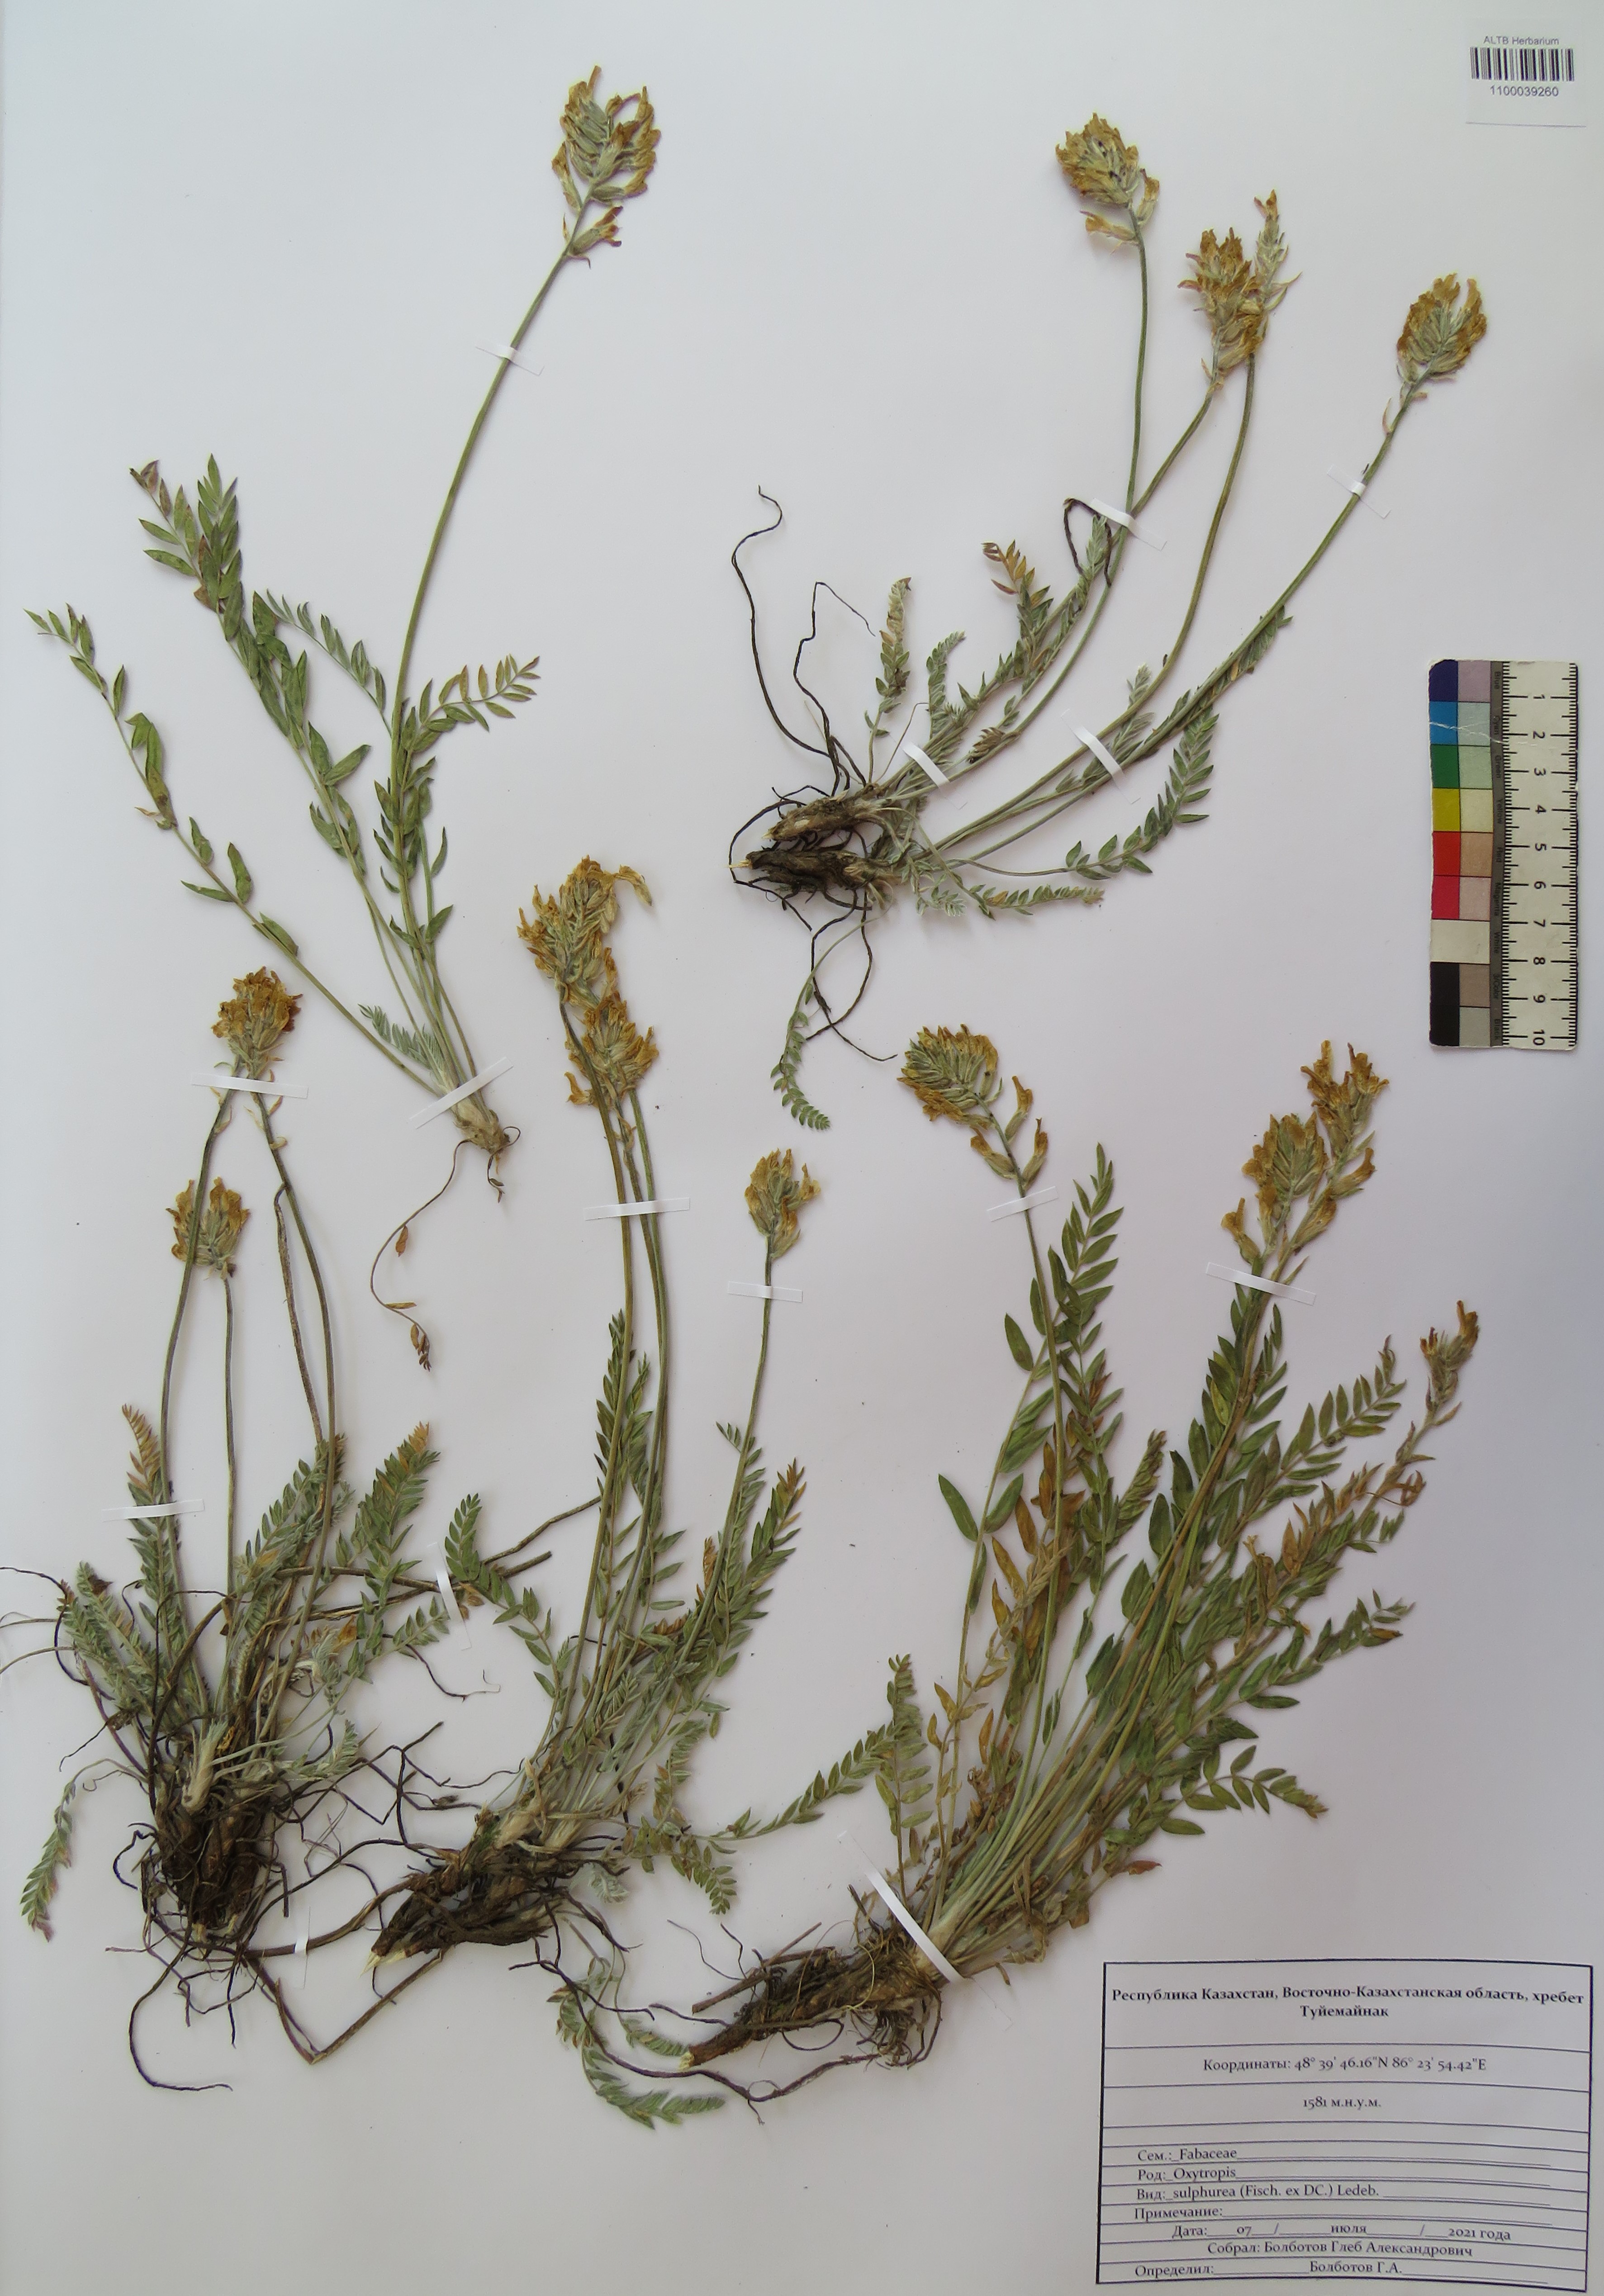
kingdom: Plantae
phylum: Tracheophyta
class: Magnoliopsida
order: Fabales
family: Fabaceae
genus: Oxytropis
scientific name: Oxytropis sulphurea
